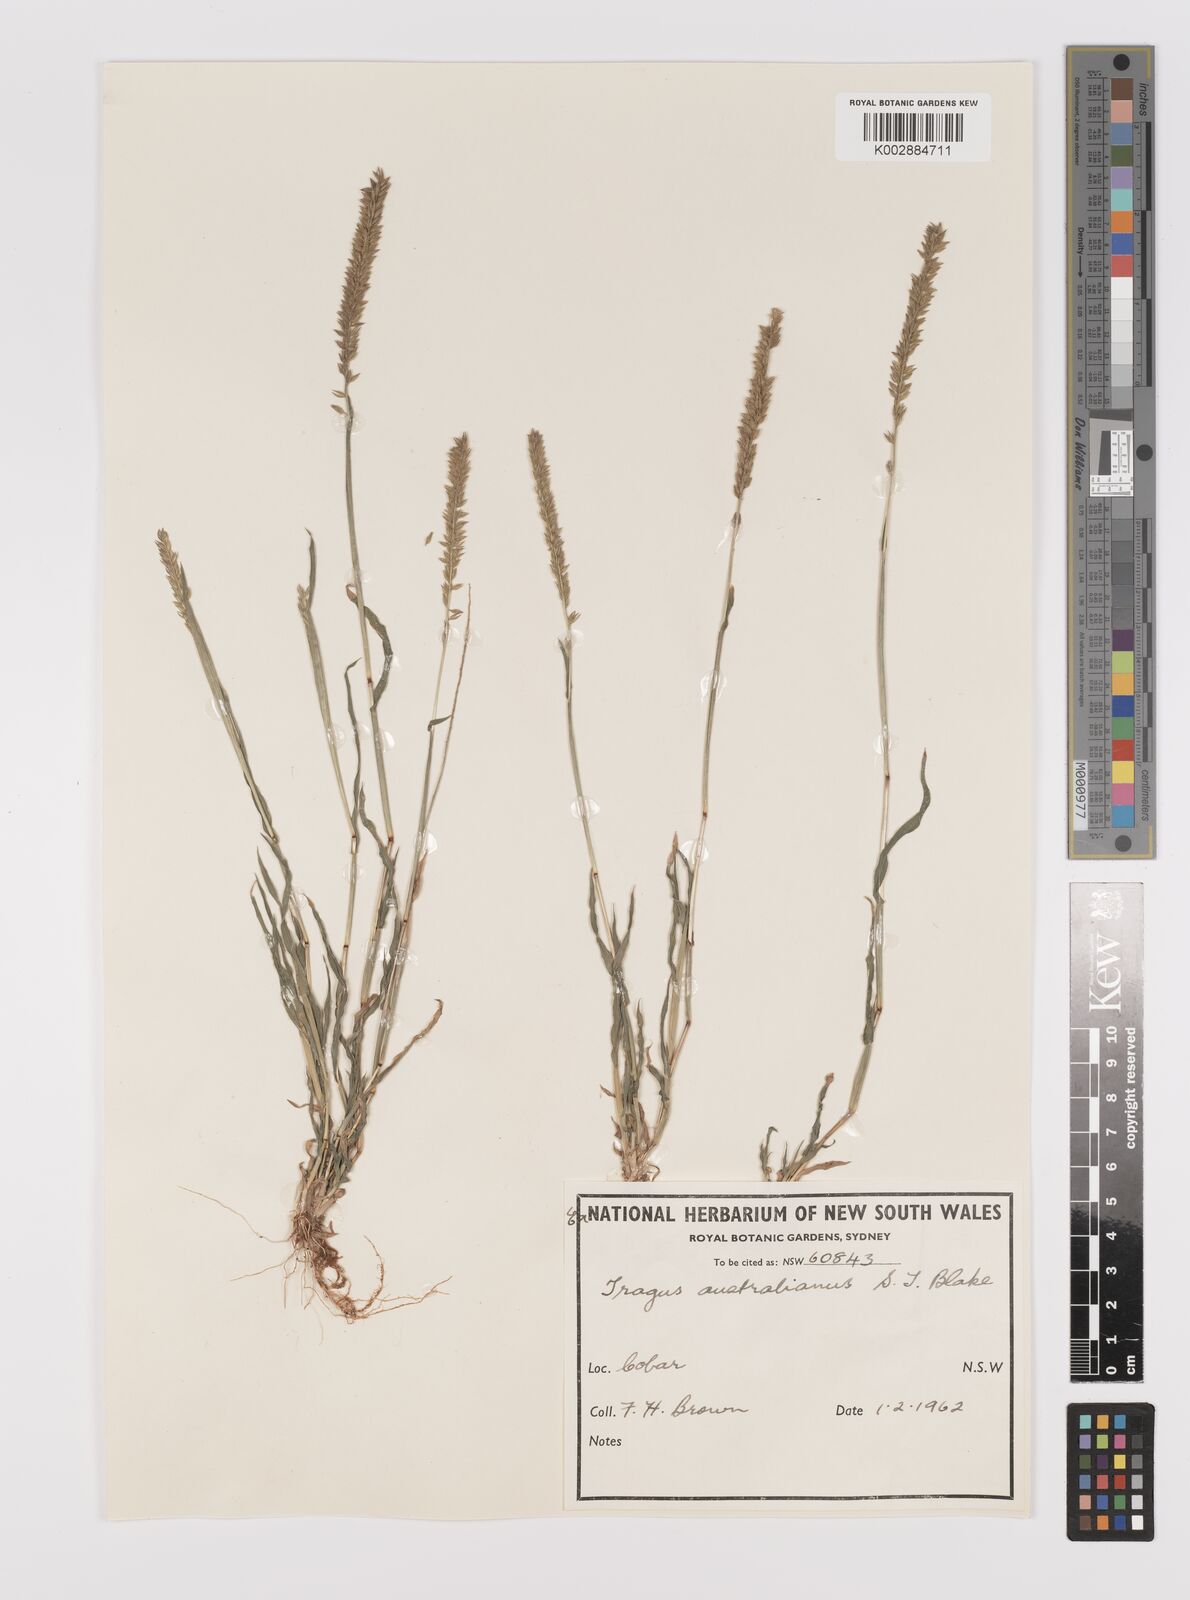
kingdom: Plantae
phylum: Tracheophyta
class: Liliopsida
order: Poales
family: Poaceae
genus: Tragus
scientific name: Tragus australianus
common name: Australian bur-grass
